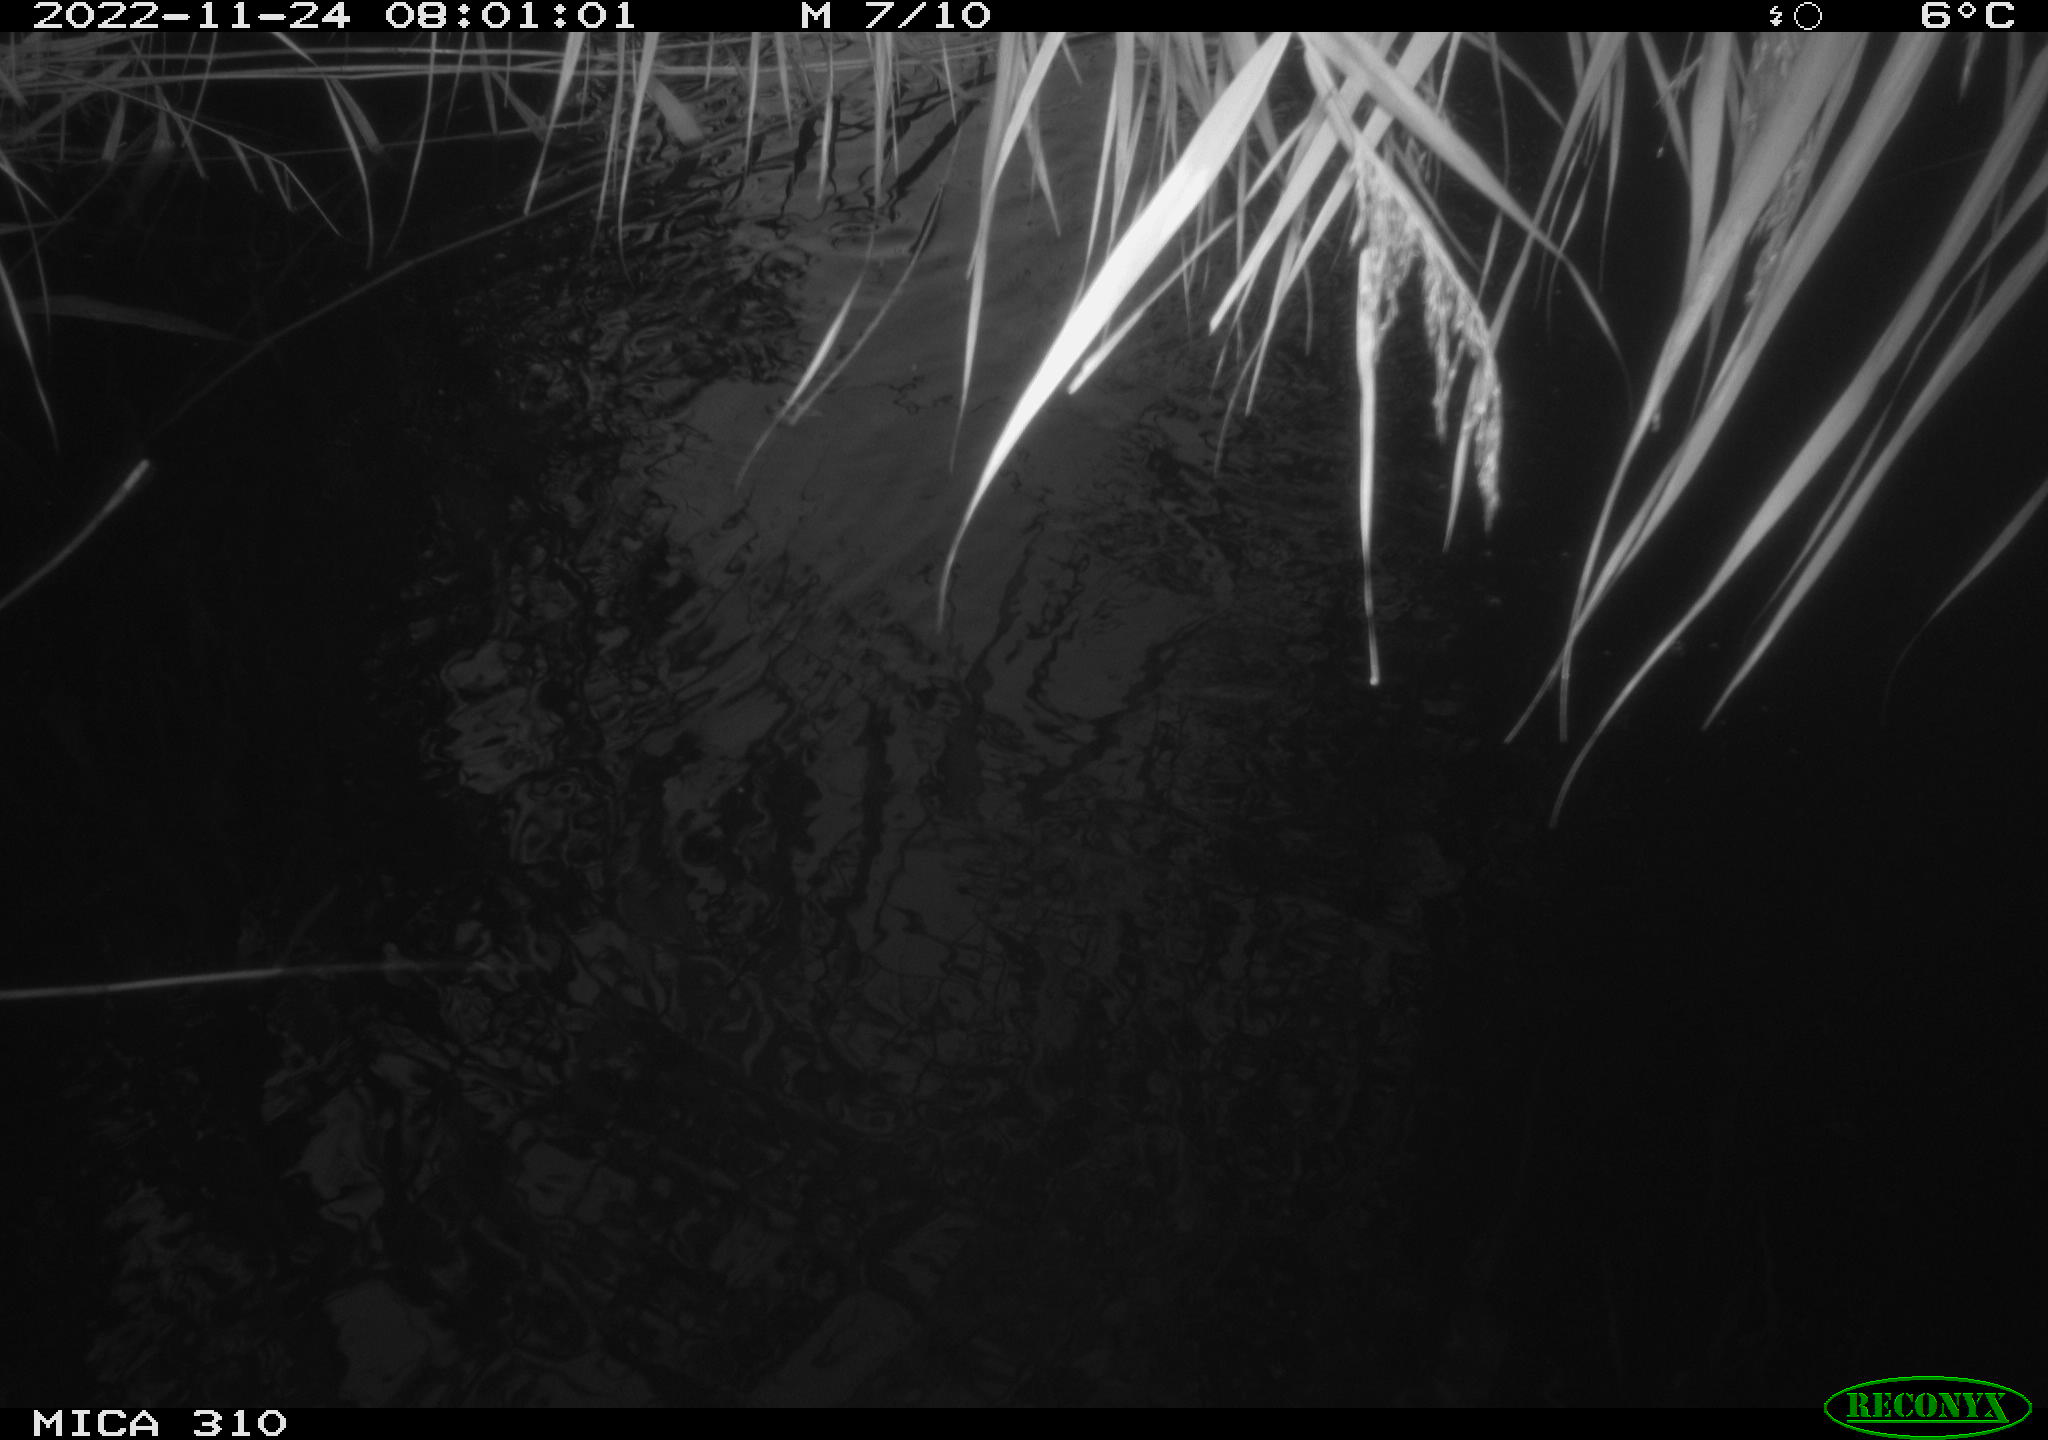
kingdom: Animalia
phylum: Chordata
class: Mammalia
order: Rodentia
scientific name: Rodentia
